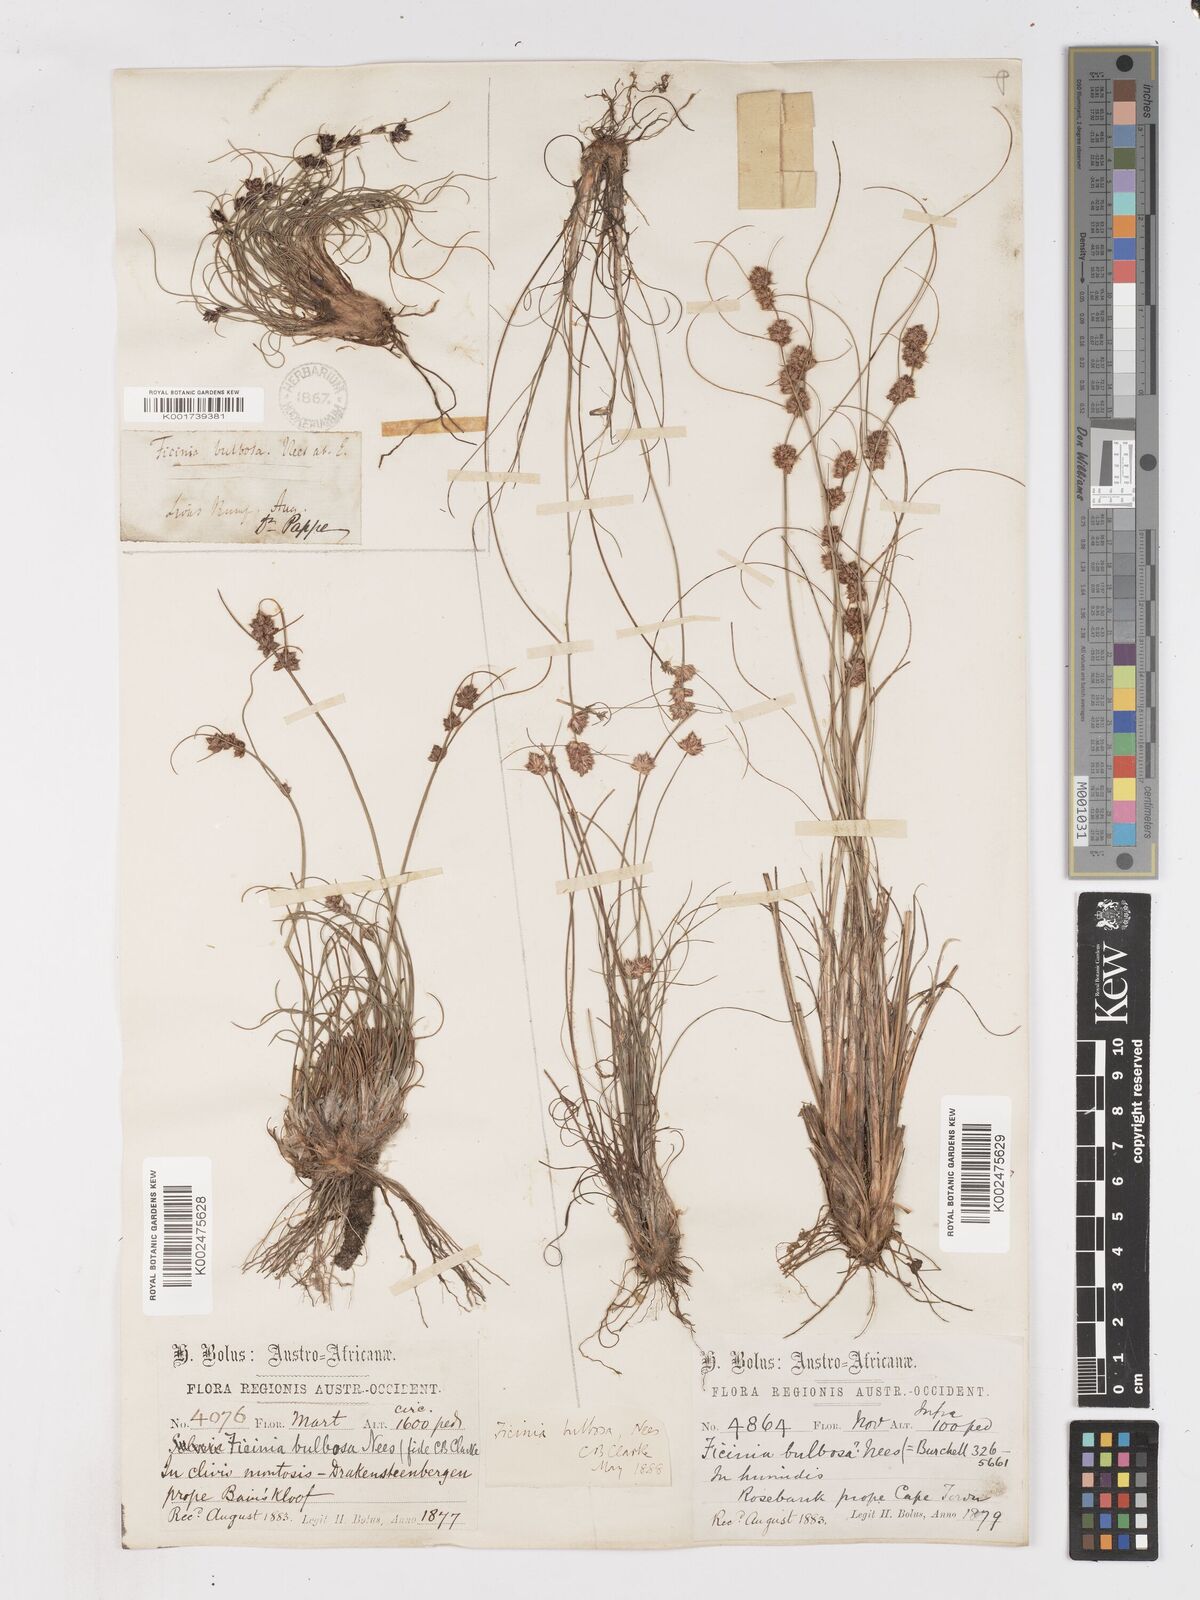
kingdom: Plantae
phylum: Tracheophyta
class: Liliopsida
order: Poales
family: Cyperaceae
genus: Ficinia
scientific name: Ficinia bulbosa
